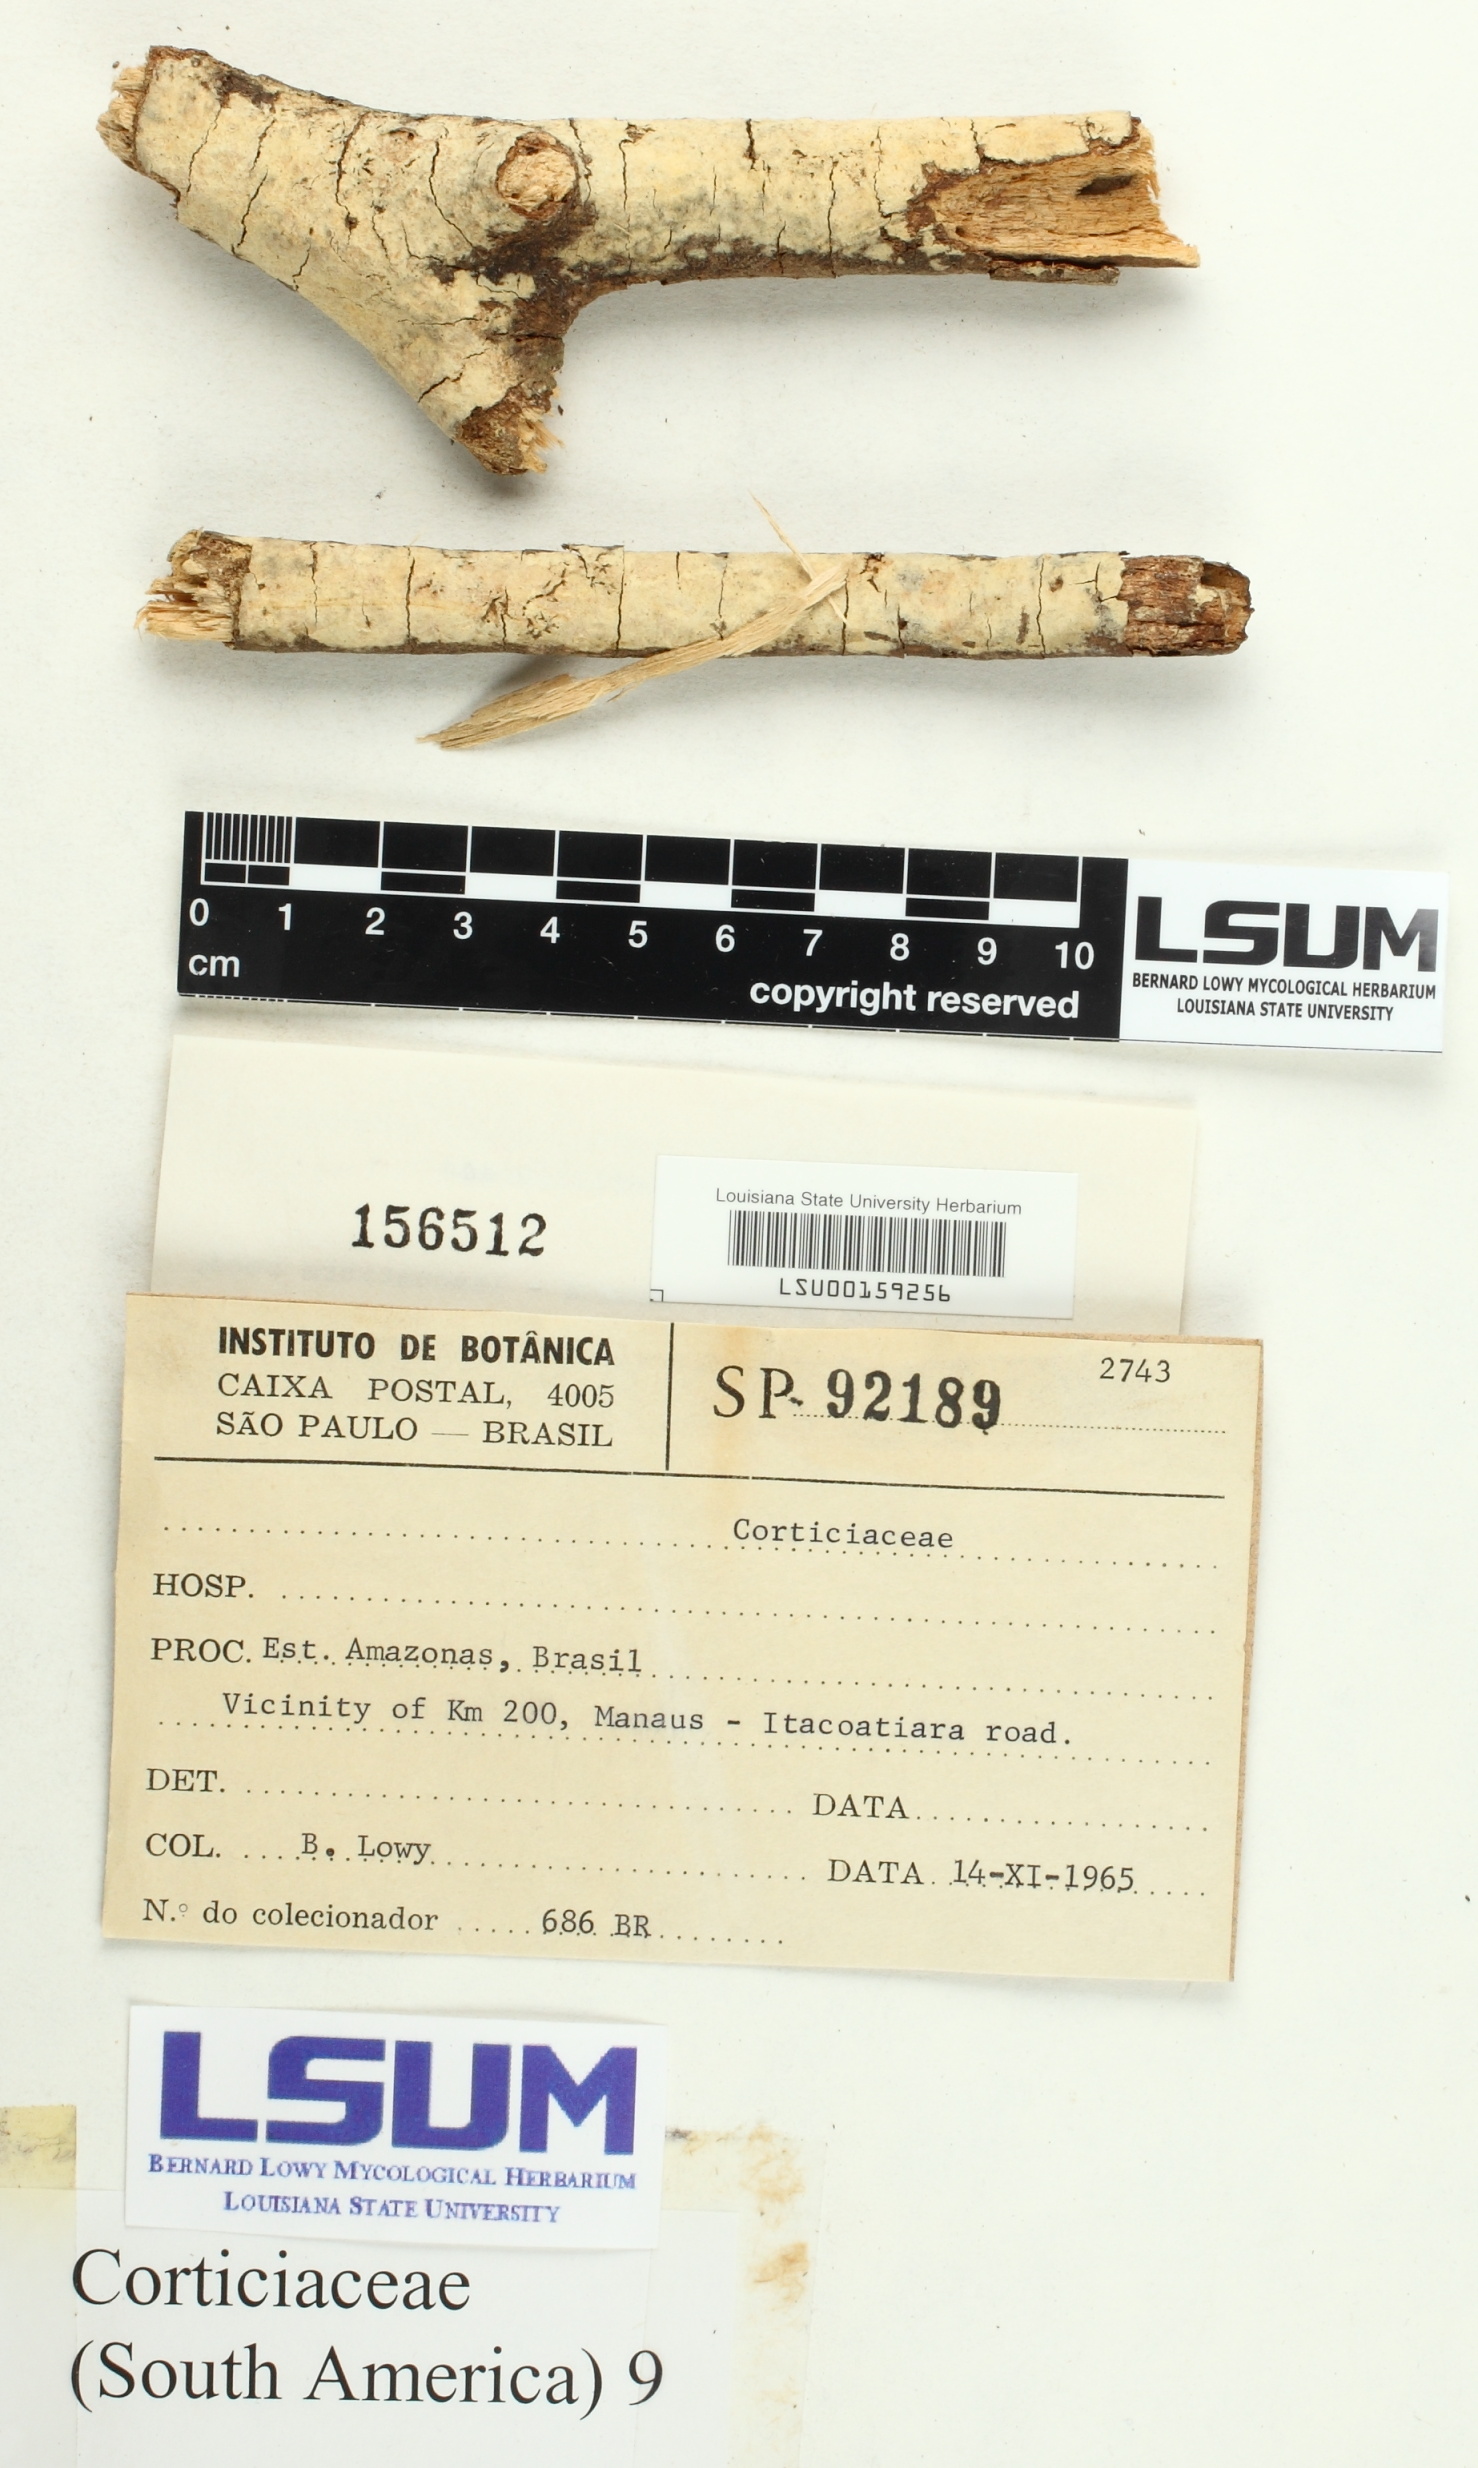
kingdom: Fungi
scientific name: Fungi
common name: Fungi
